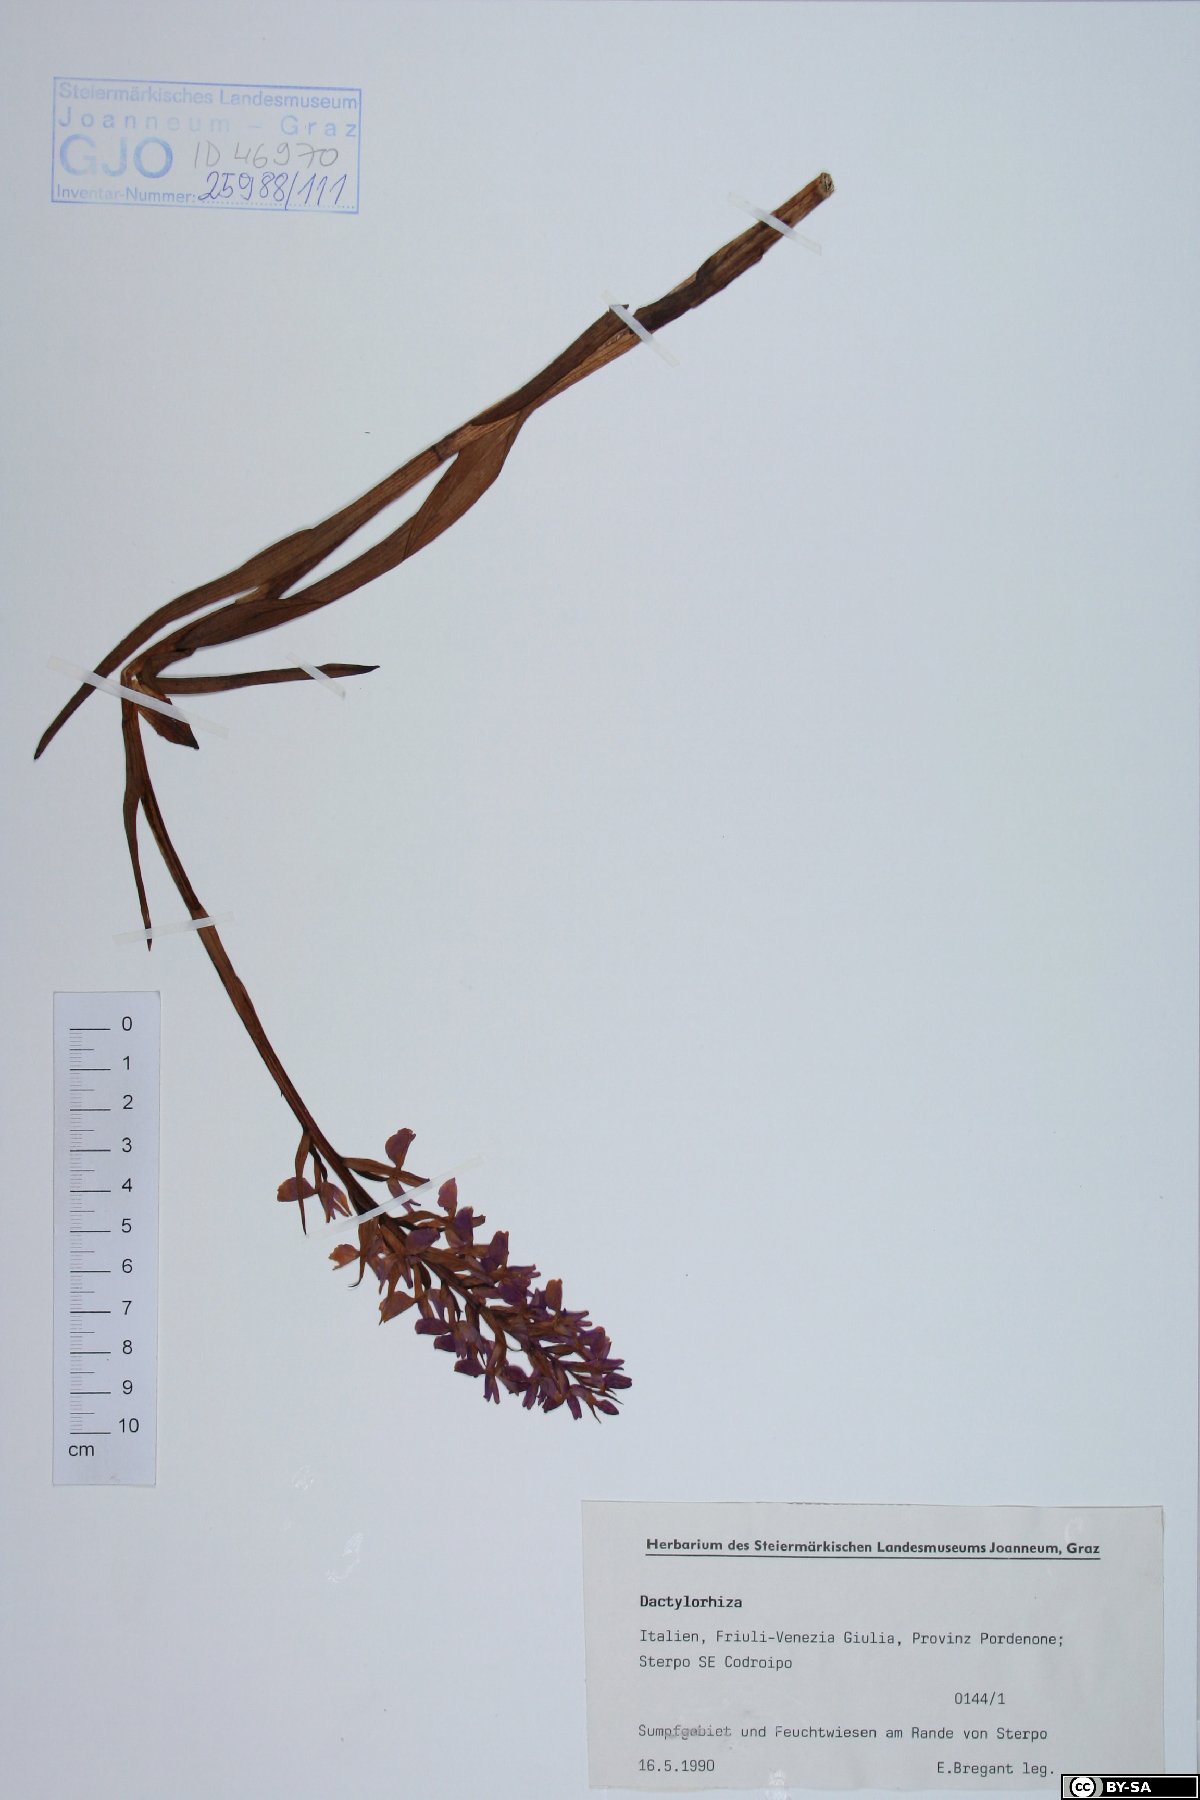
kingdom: Plantae
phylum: Tracheophyta
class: Liliopsida
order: Asparagales
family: Orchidaceae
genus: Dactylorhiza
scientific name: Dactylorhiza
